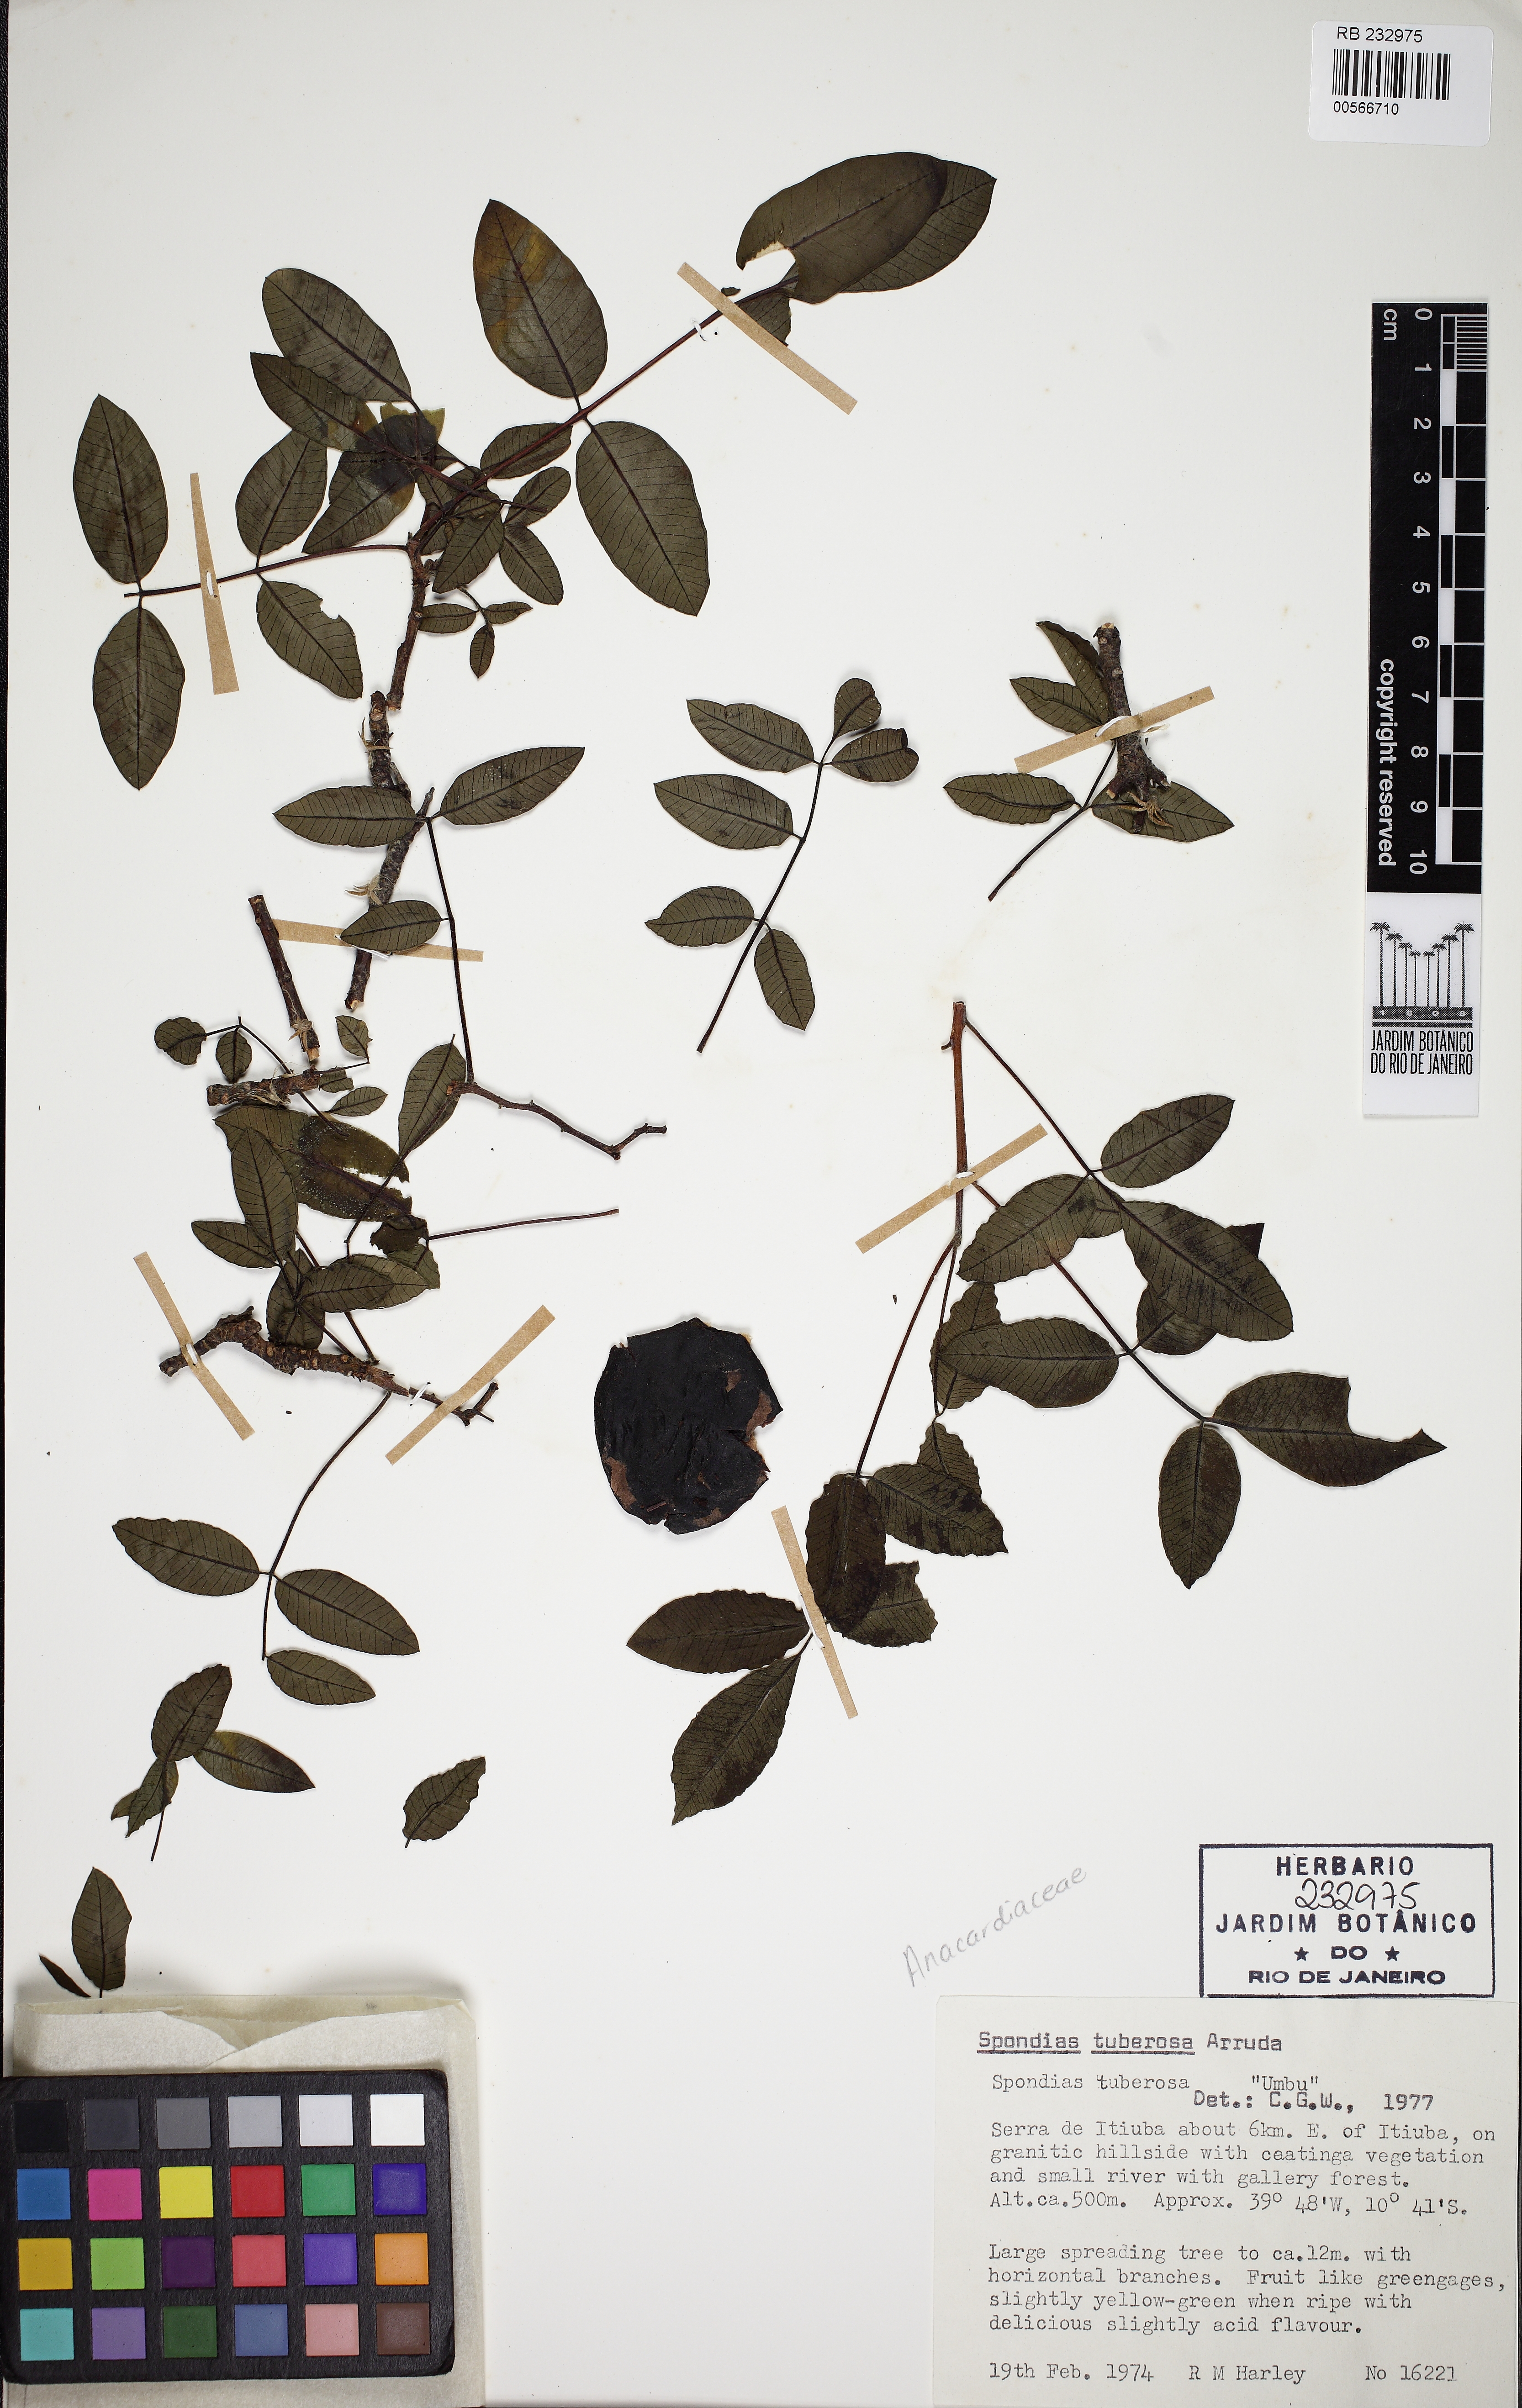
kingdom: Plantae
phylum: Tracheophyta
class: Magnoliopsida
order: Sapindales
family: Anacardiaceae
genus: Spondias
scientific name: Spondias tuberosa
